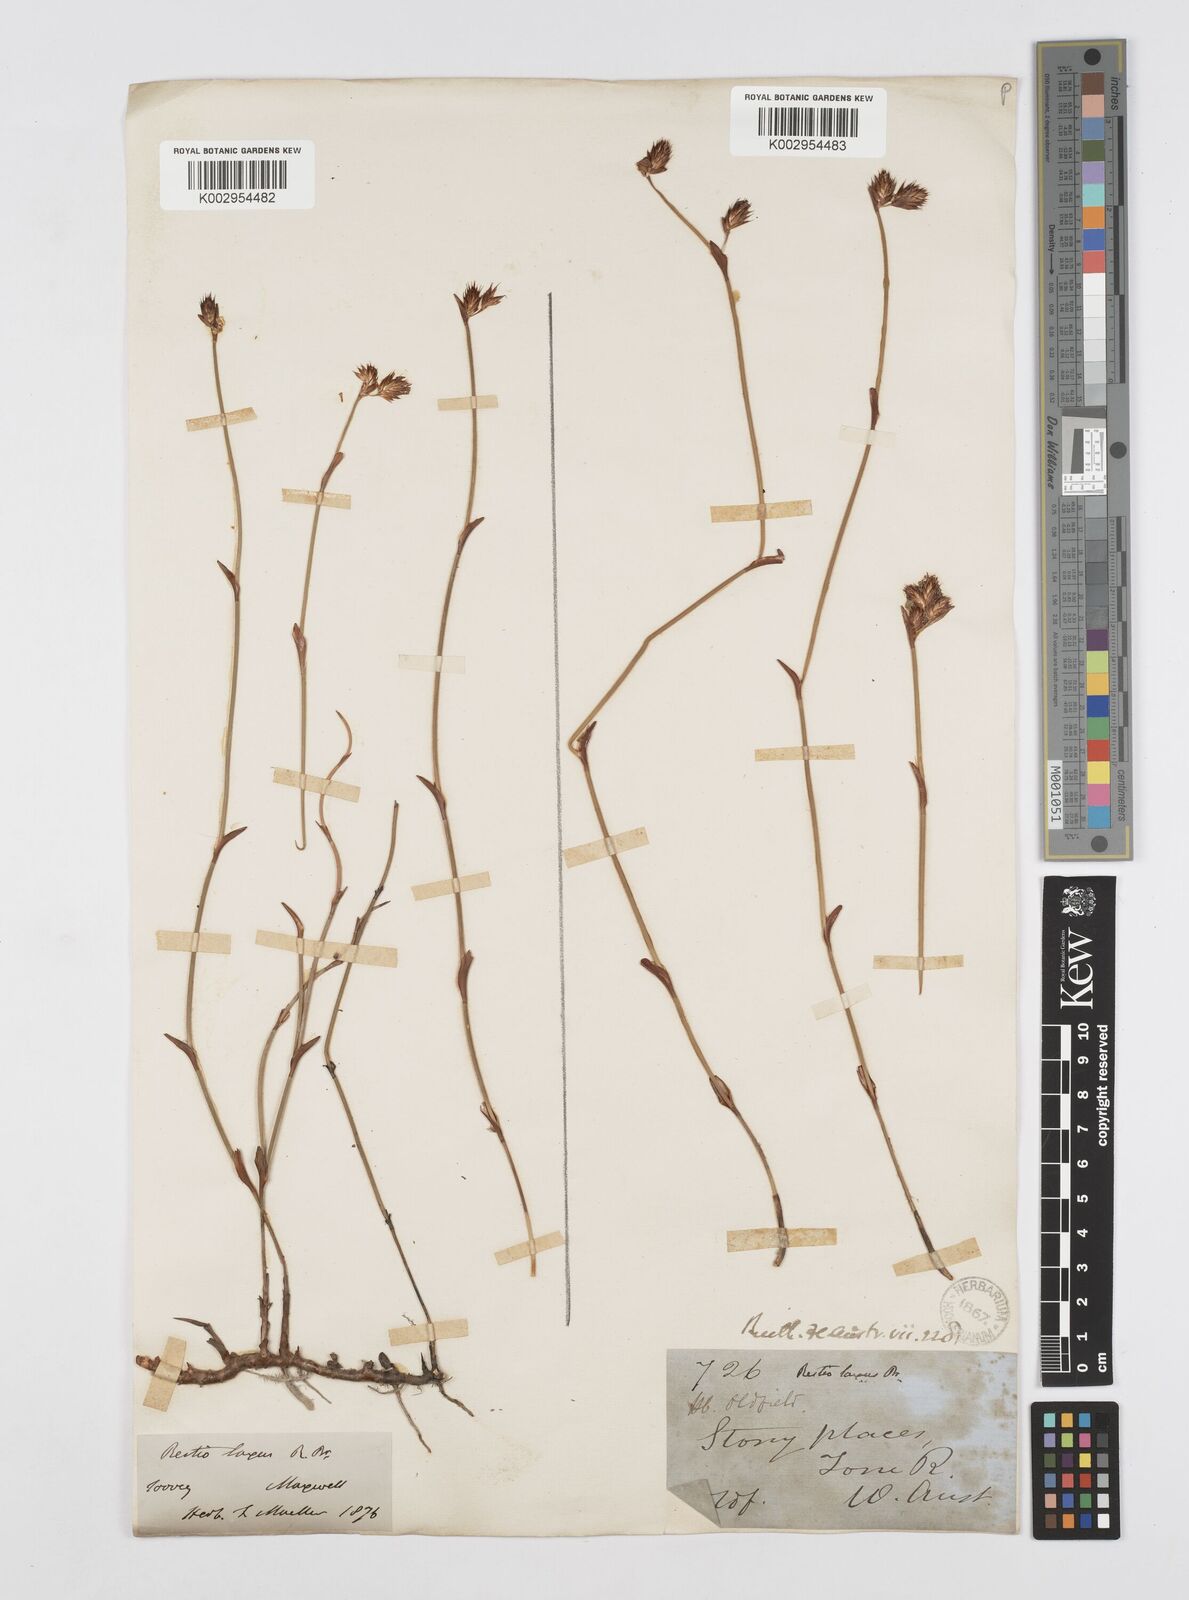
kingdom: Plantae
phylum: Tracheophyta
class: Liliopsida
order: Poales
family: Restionaceae
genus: Chordifex
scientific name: Chordifex laxus
